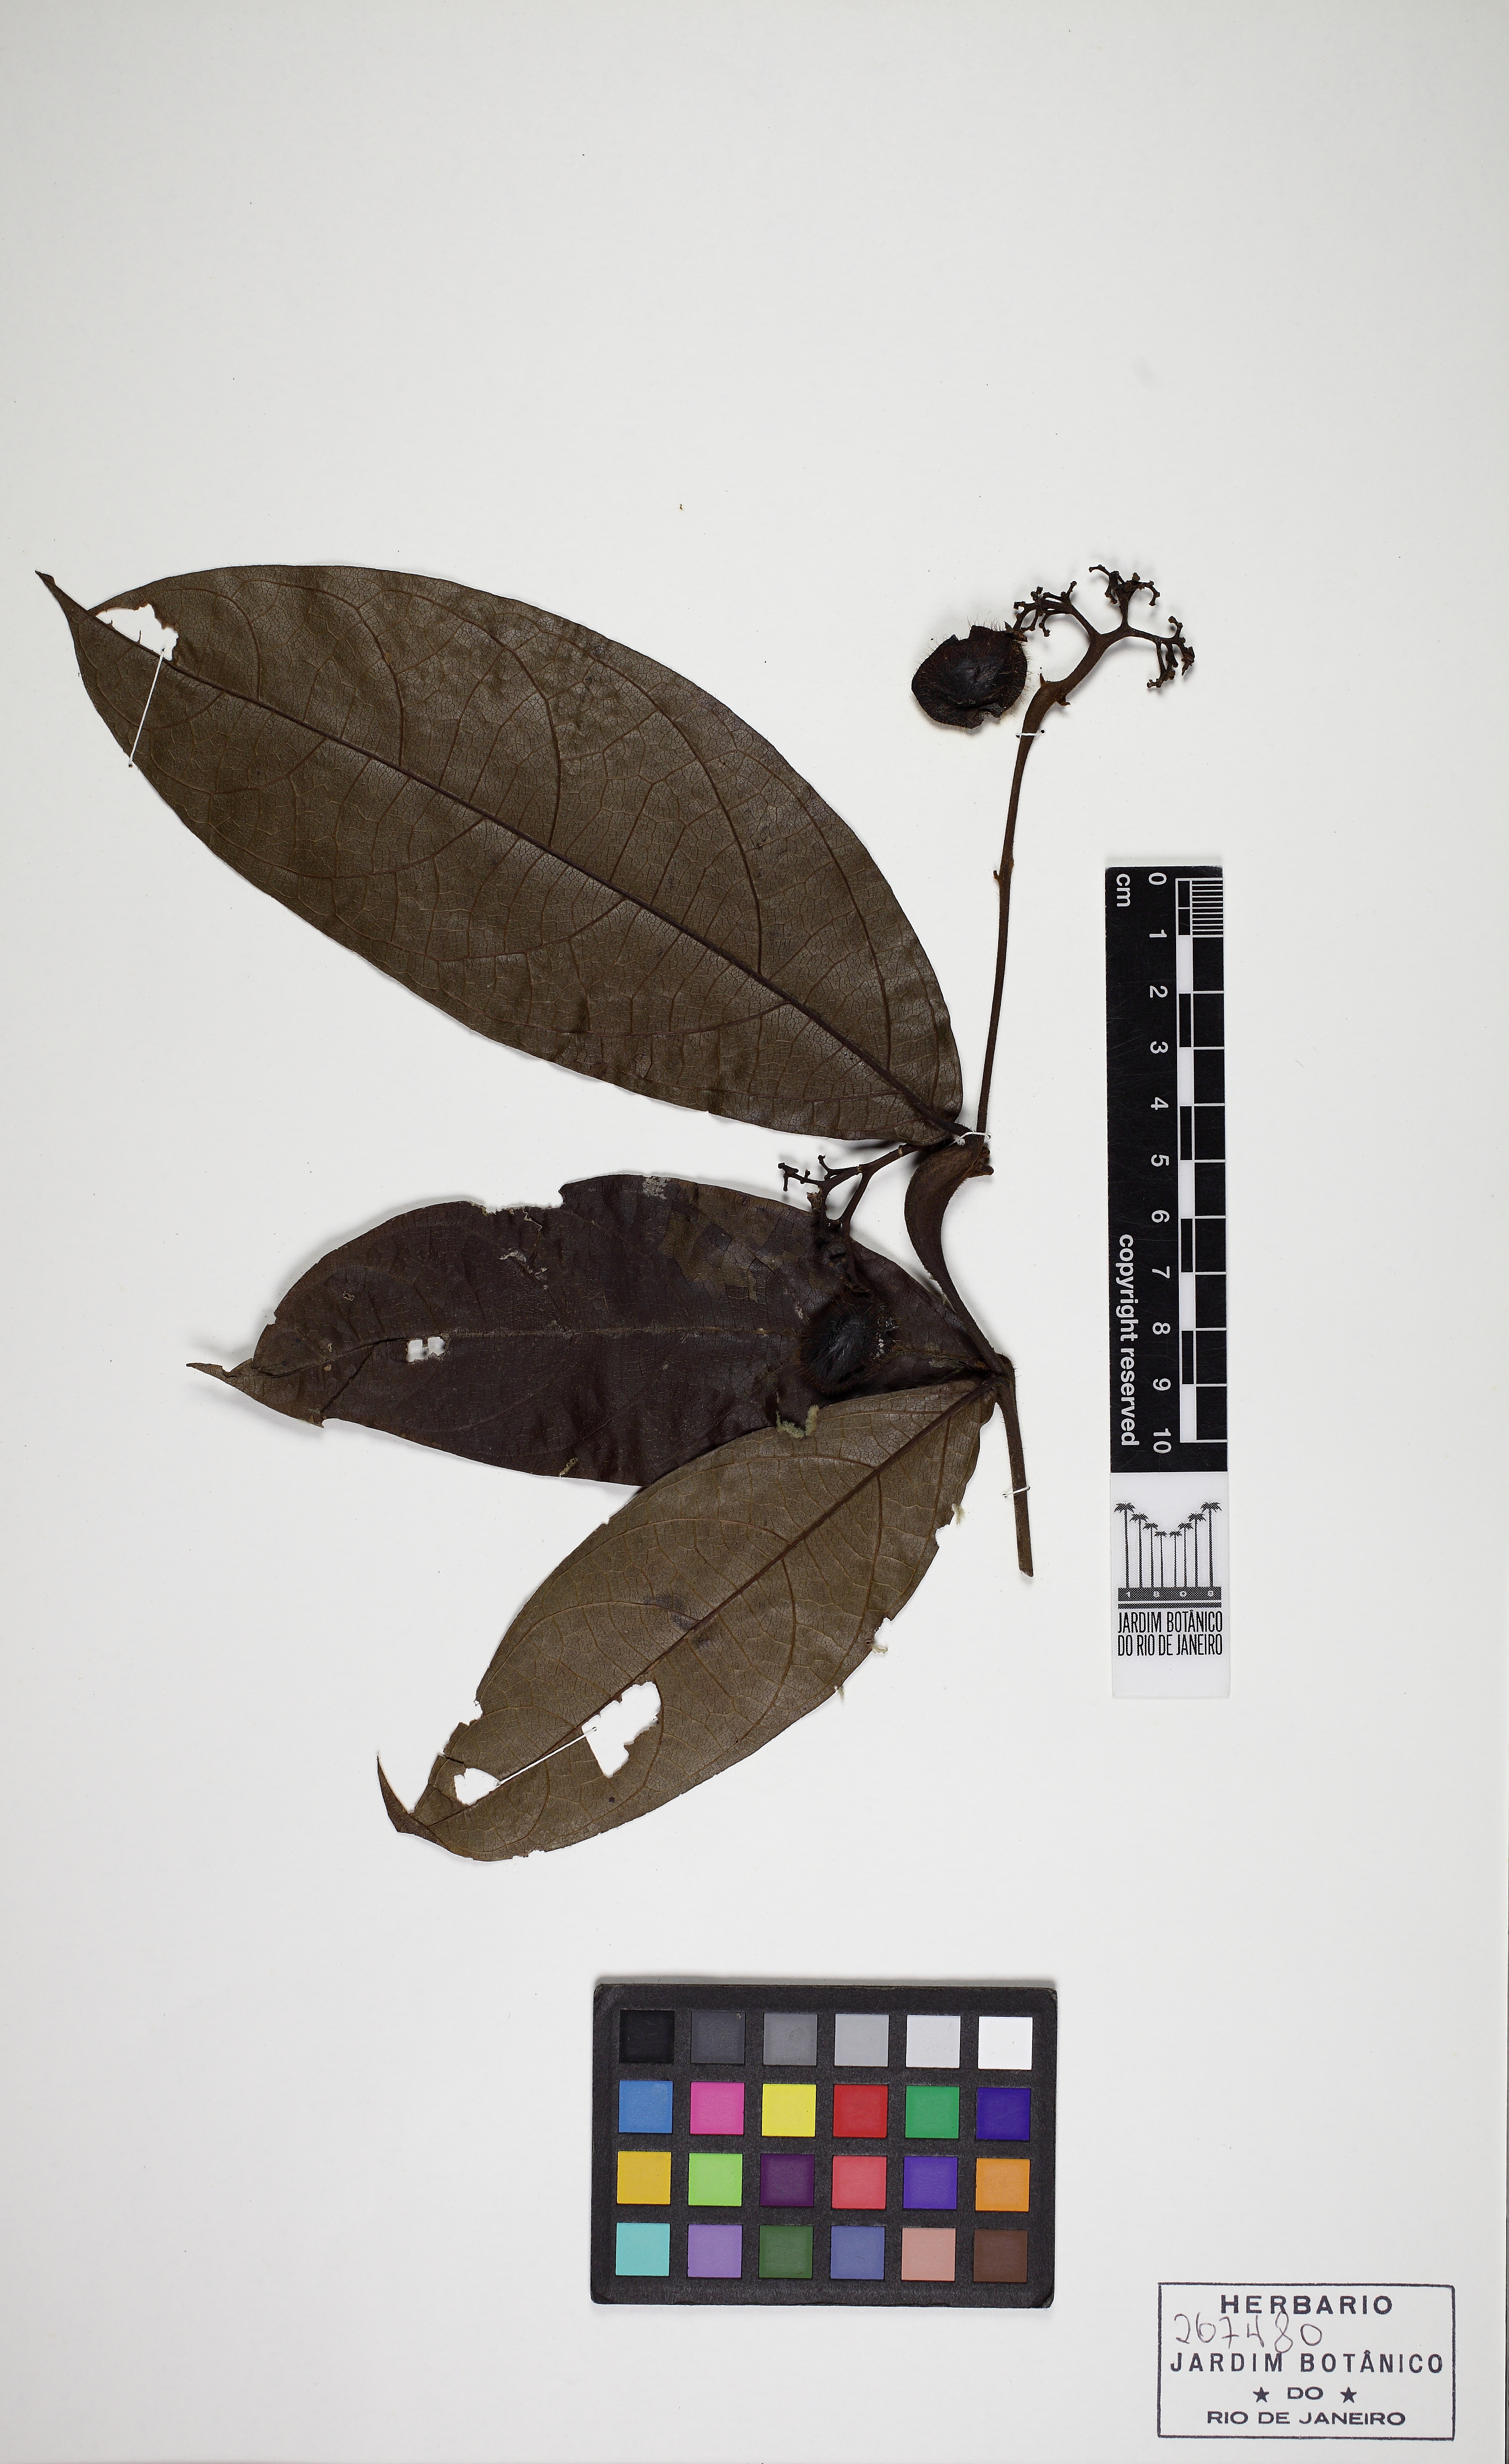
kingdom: Plantae
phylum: Tracheophyta
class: Magnoliopsida
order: Boraginales
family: Cordiaceae
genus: Cordia
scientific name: Cordia nodosa
